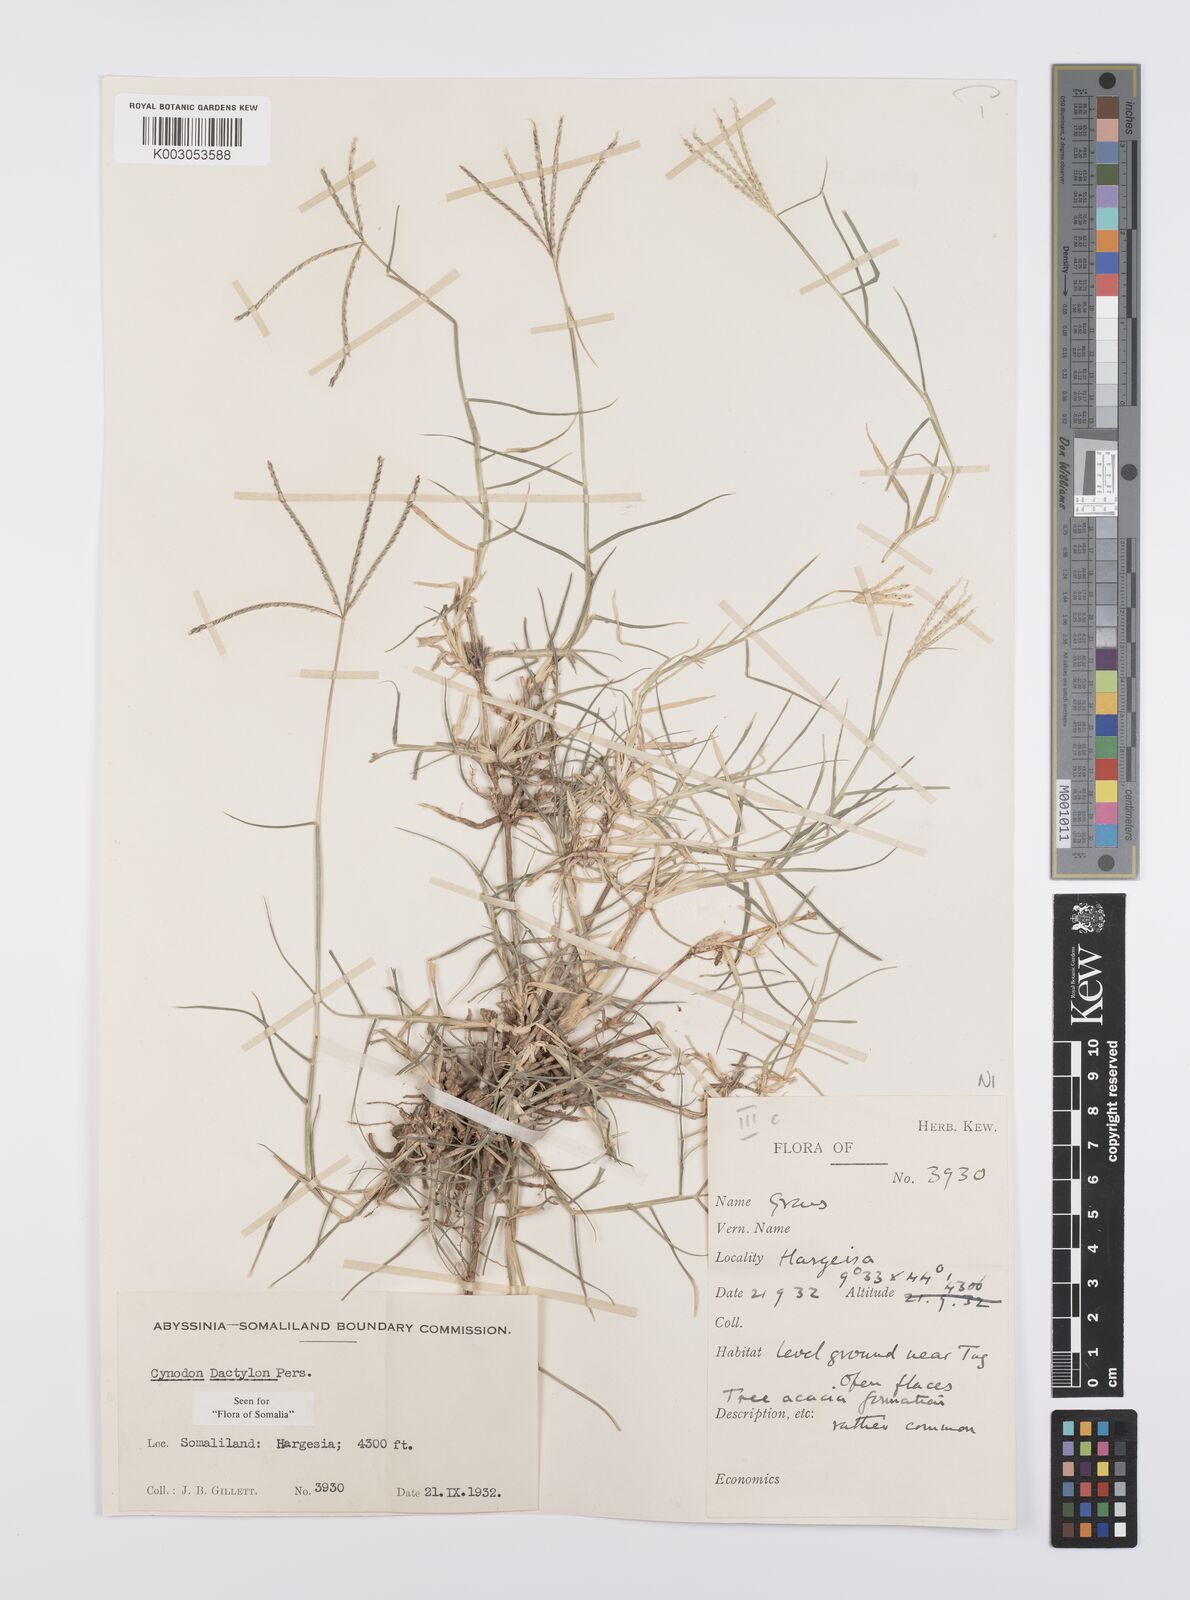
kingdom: Plantae
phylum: Tracheophyta
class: Liliopsida
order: Poales
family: Poaceae
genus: Cynodon
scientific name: Cynodon dactylon
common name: Bermuda grass
